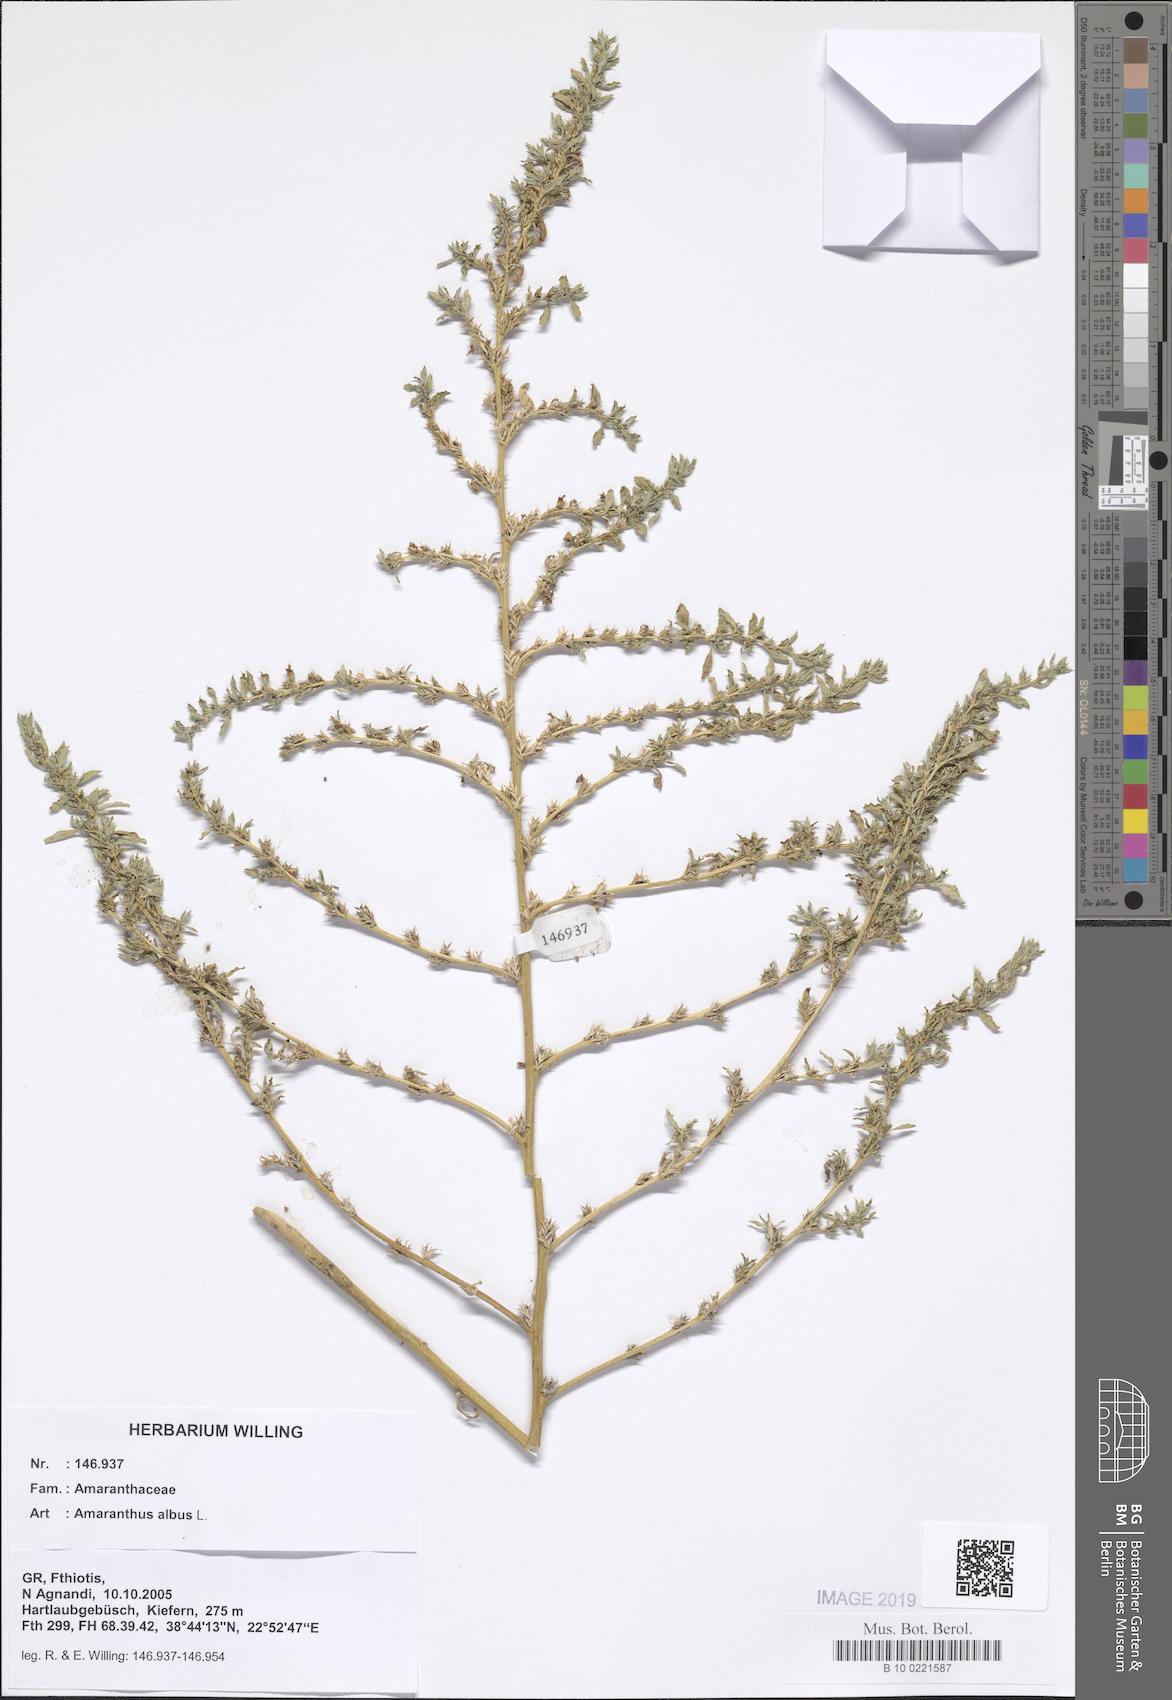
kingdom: Plantae
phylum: Tracheophyta
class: Magnoliopsida
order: Caryophyllales
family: Amaranthaceae
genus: Amaranthus
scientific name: Amaranthus albus
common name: White pigweed
